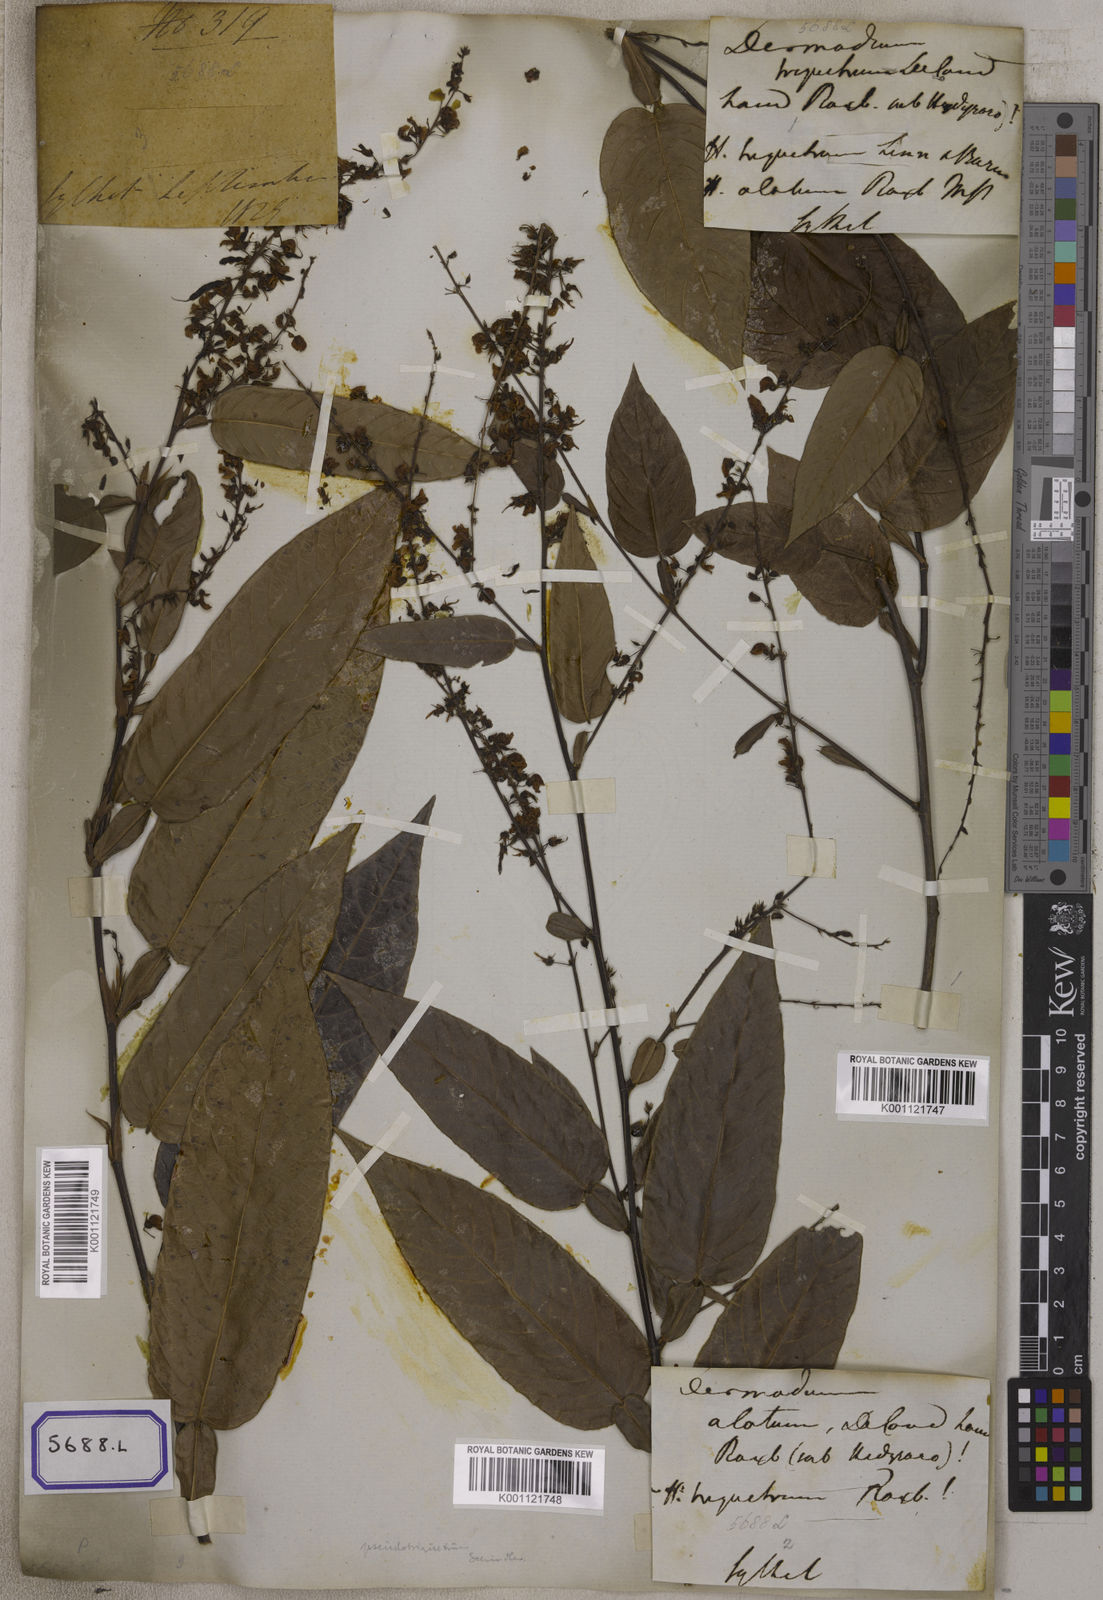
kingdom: Plantae
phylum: Tracheophyta
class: Magnoliopsida
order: Fabales
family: Fabaceae
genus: Tadehagi
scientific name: Tadehagi triquetrum
